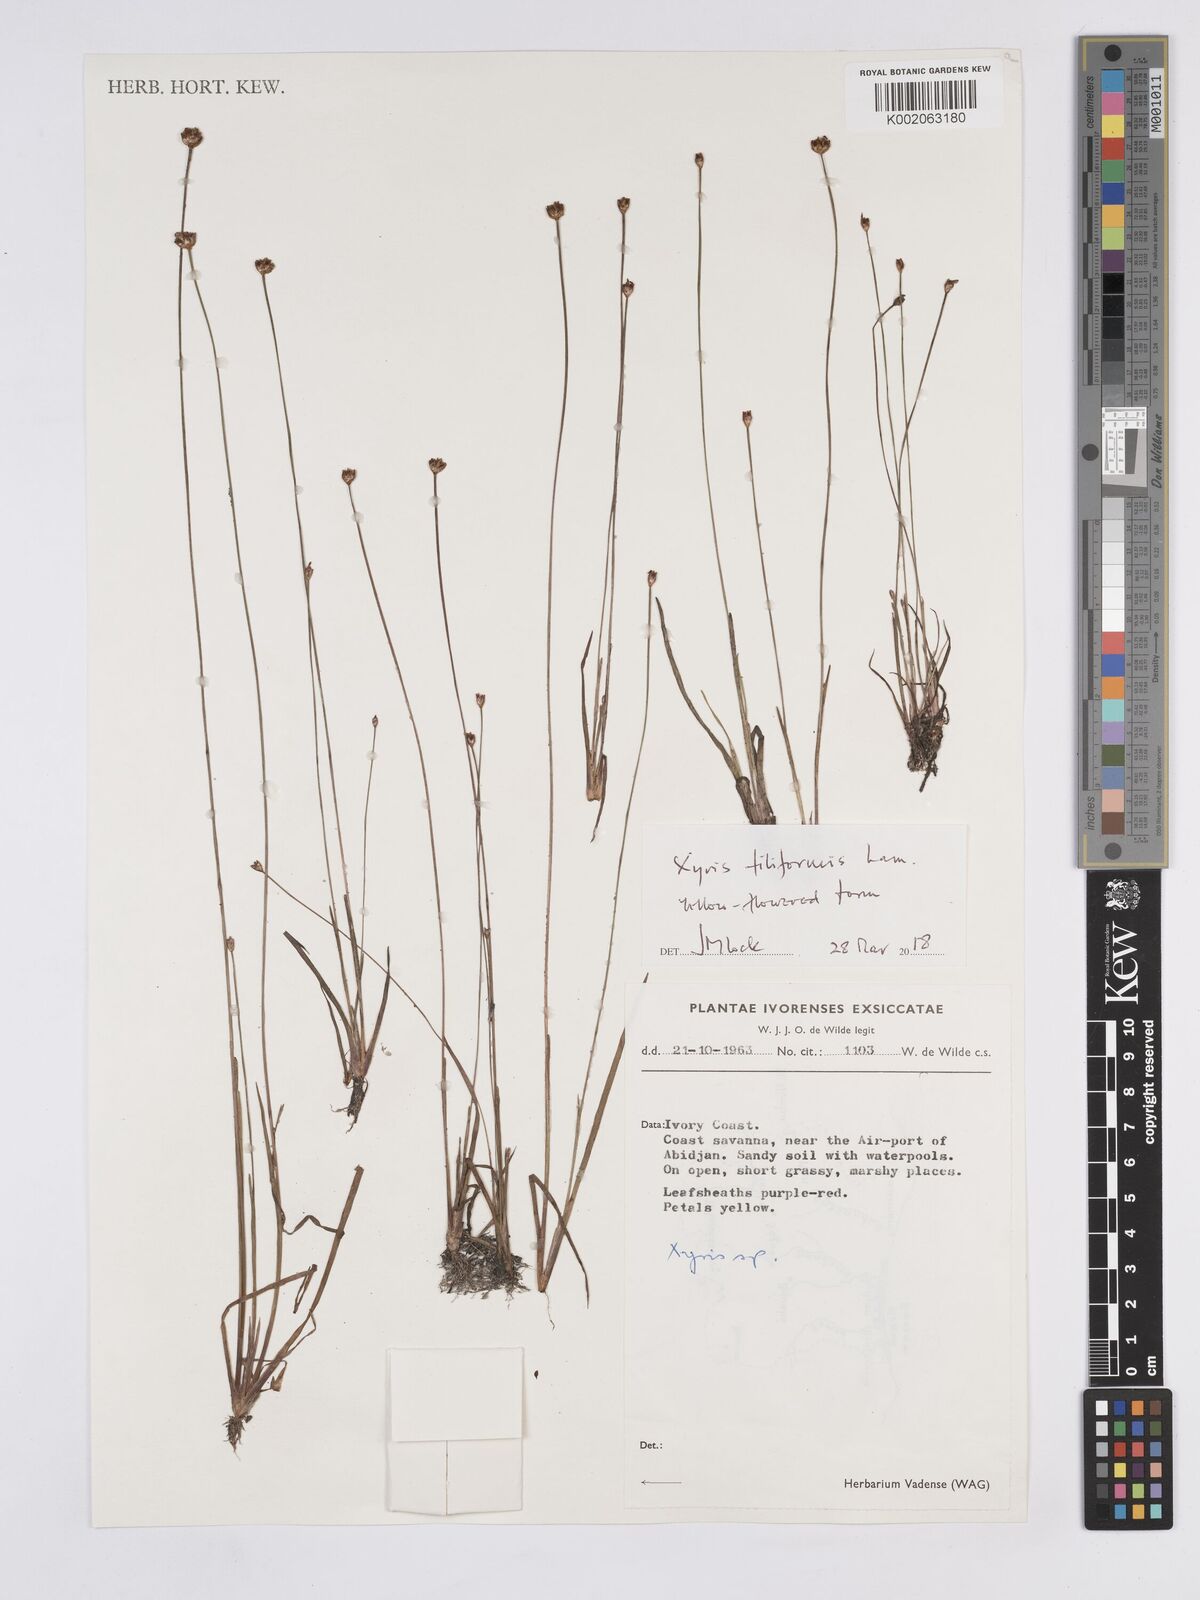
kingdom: Plantae
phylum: Tracheophyta
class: Liliopsida
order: Poales
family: Xyridaceae
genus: Xyris
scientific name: Xyris filiformis
